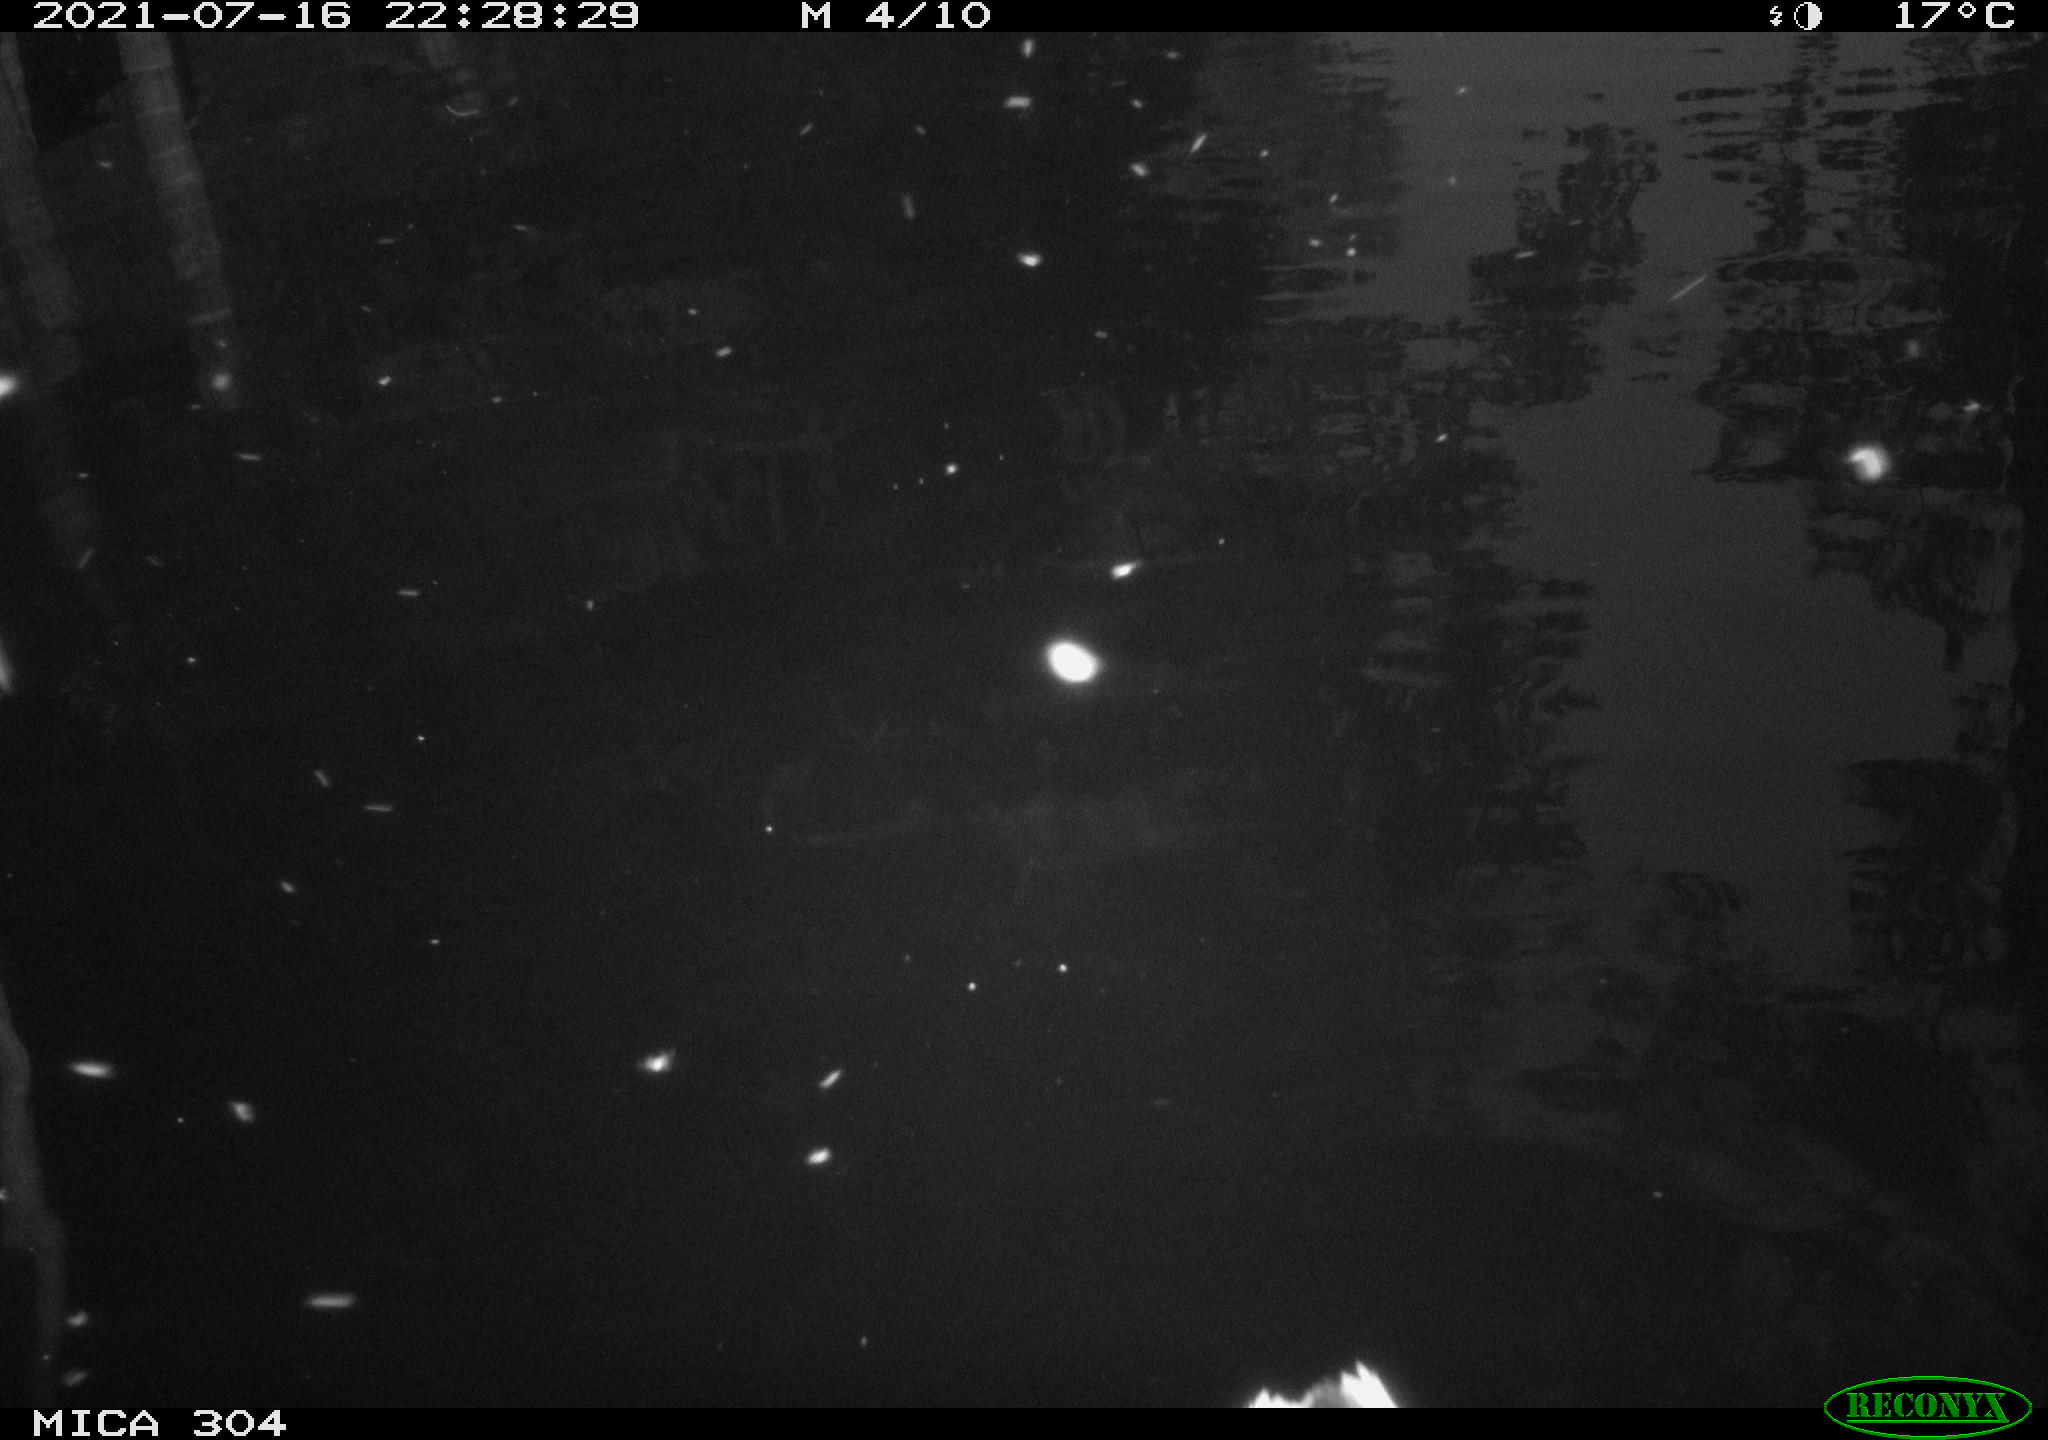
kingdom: Animalia
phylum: Chordata
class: Aves
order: Anseriformes
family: Anatidae
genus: Anas
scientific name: Anas platyrhynchos
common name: Mallard
